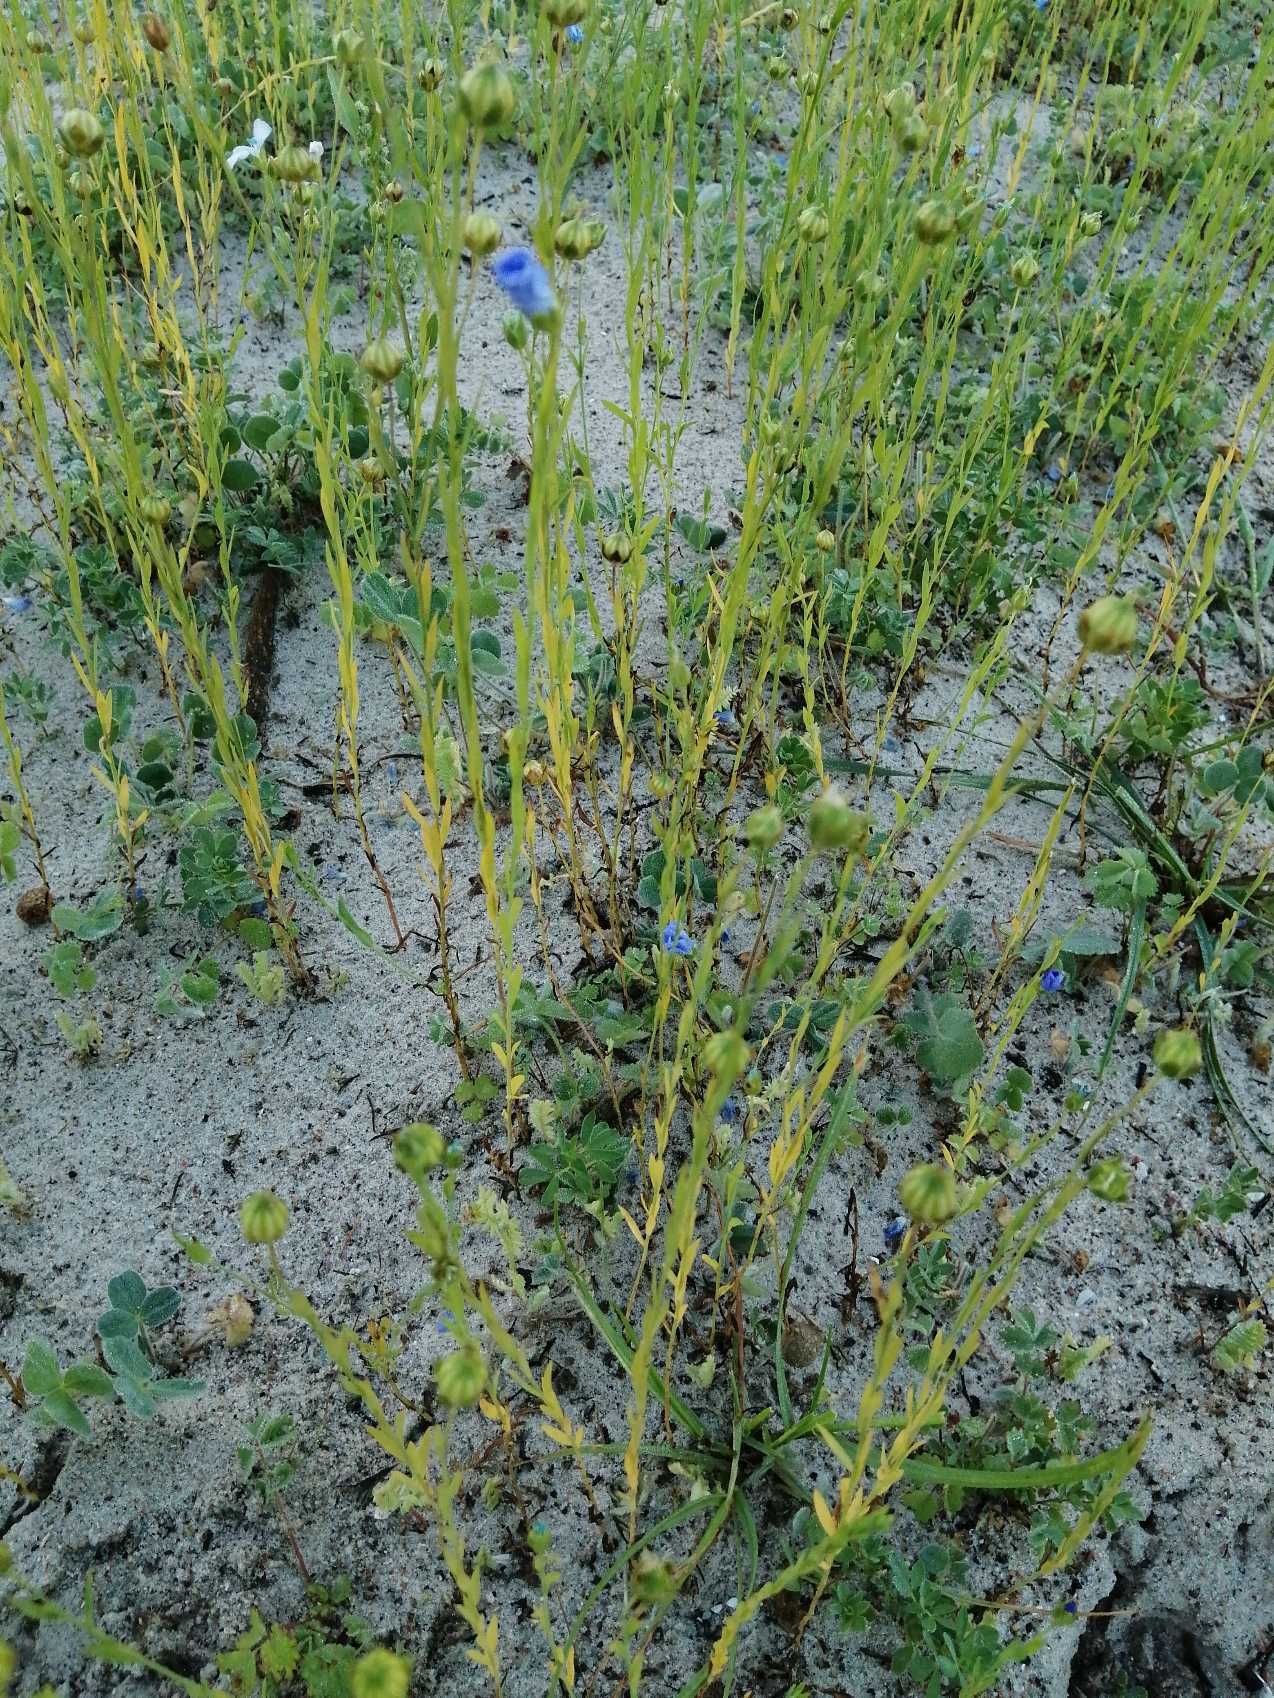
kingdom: Plantae
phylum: Tracheophyta
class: Magnoliopsida
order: Malpighiales
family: Linaceae
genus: Linum
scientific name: Linum usitatissimum
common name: Almindelig hør
